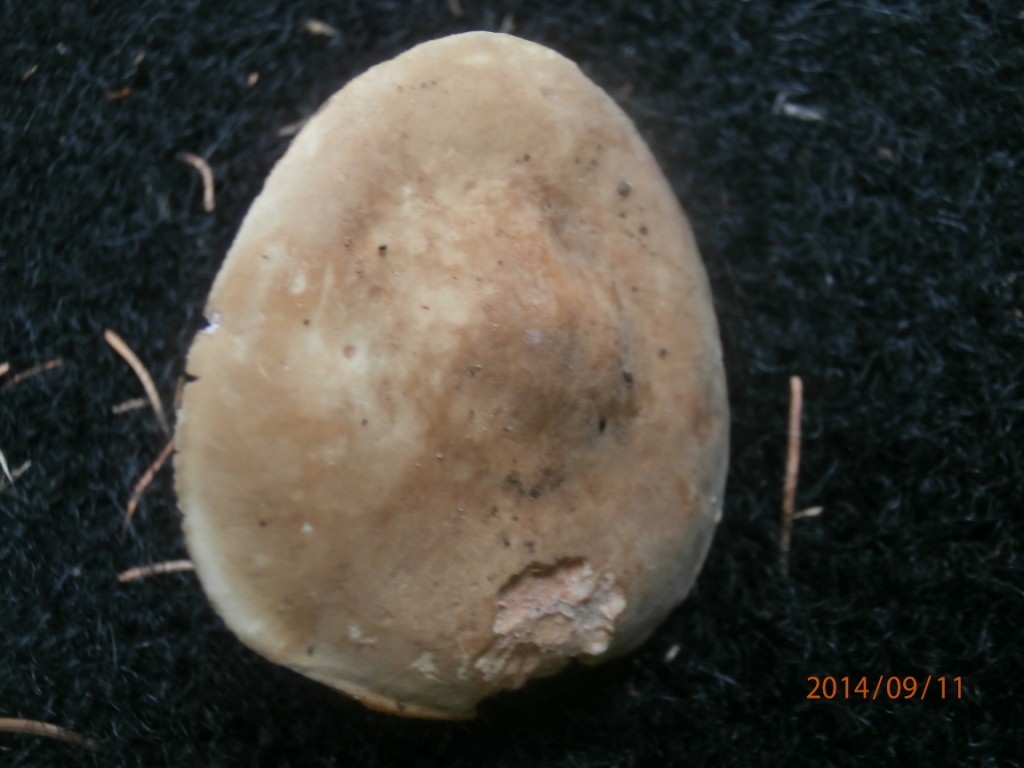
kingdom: Fungi
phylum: Basidiomycota
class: Agaricomycetes
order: Russulales
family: Russulaceae
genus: Lactarius
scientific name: Lactarius pterosporus
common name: vingesporet mælkehat
